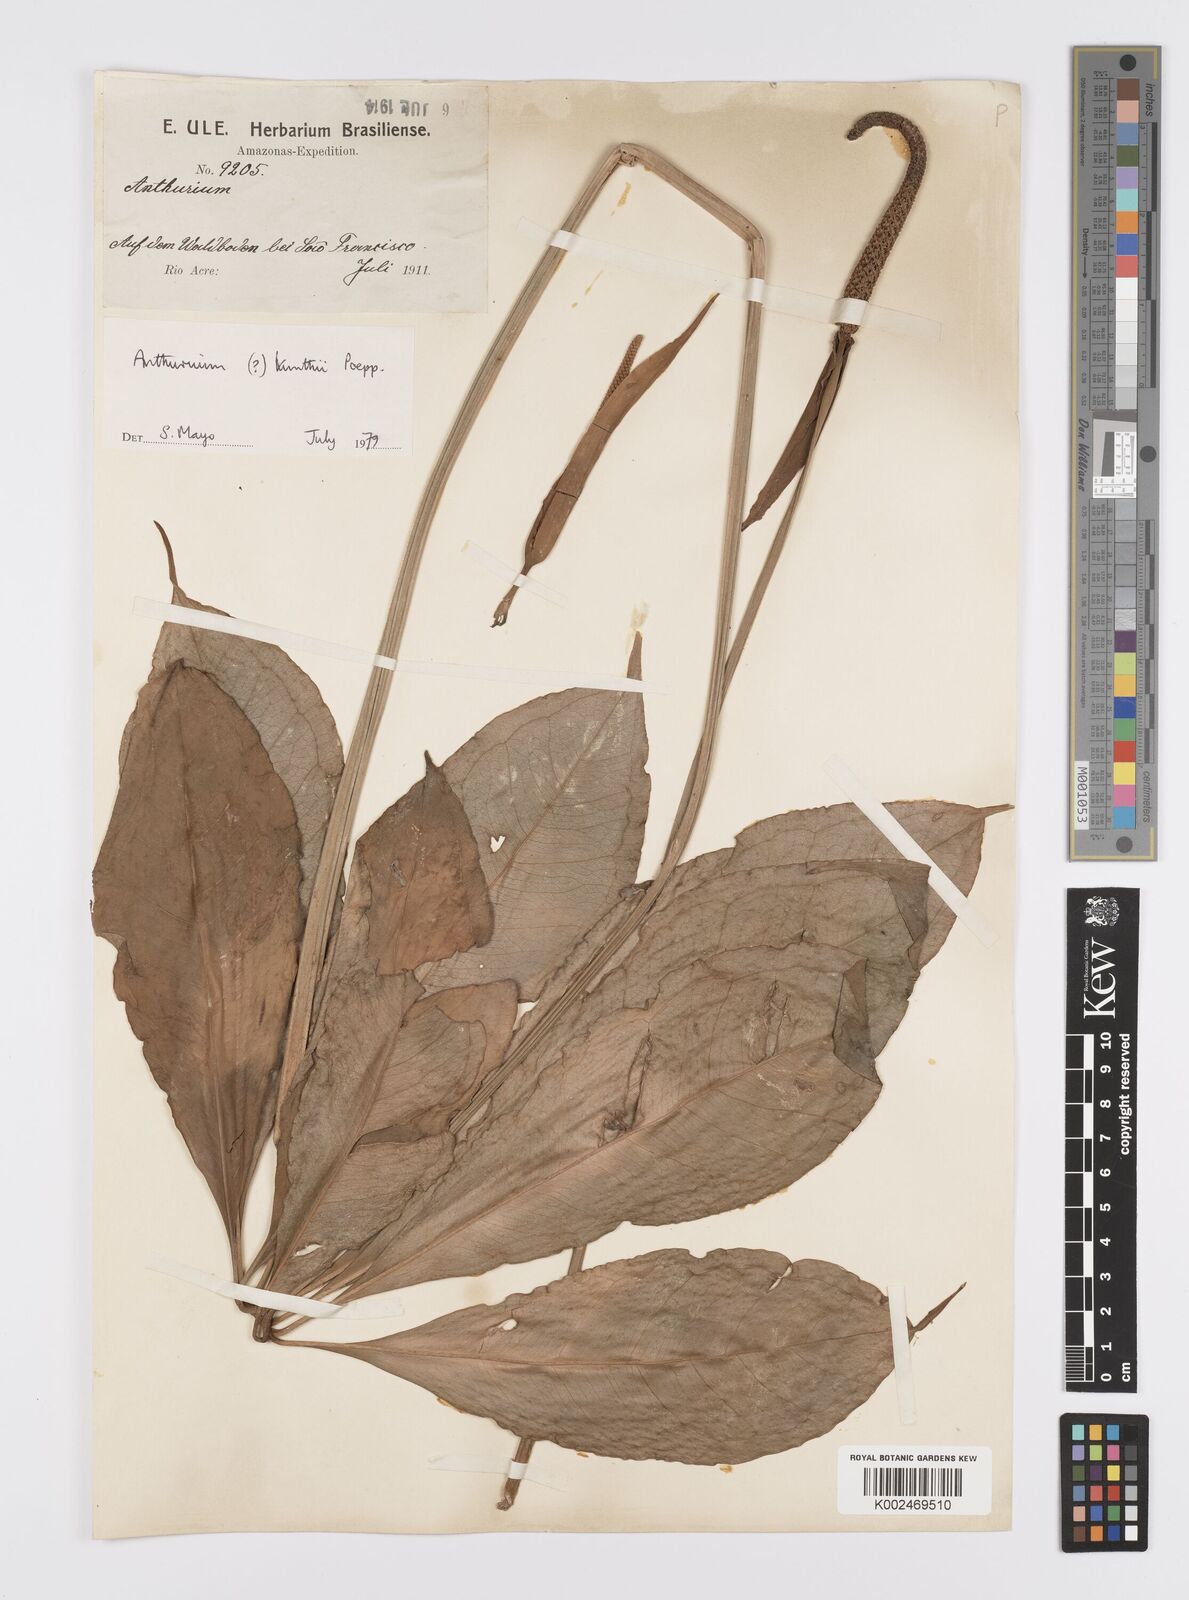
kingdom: Plantae
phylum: Tracheophyta
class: Liliopsida
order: Alismatales
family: Araceae
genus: Anthurium
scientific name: Anthurium kunthii
